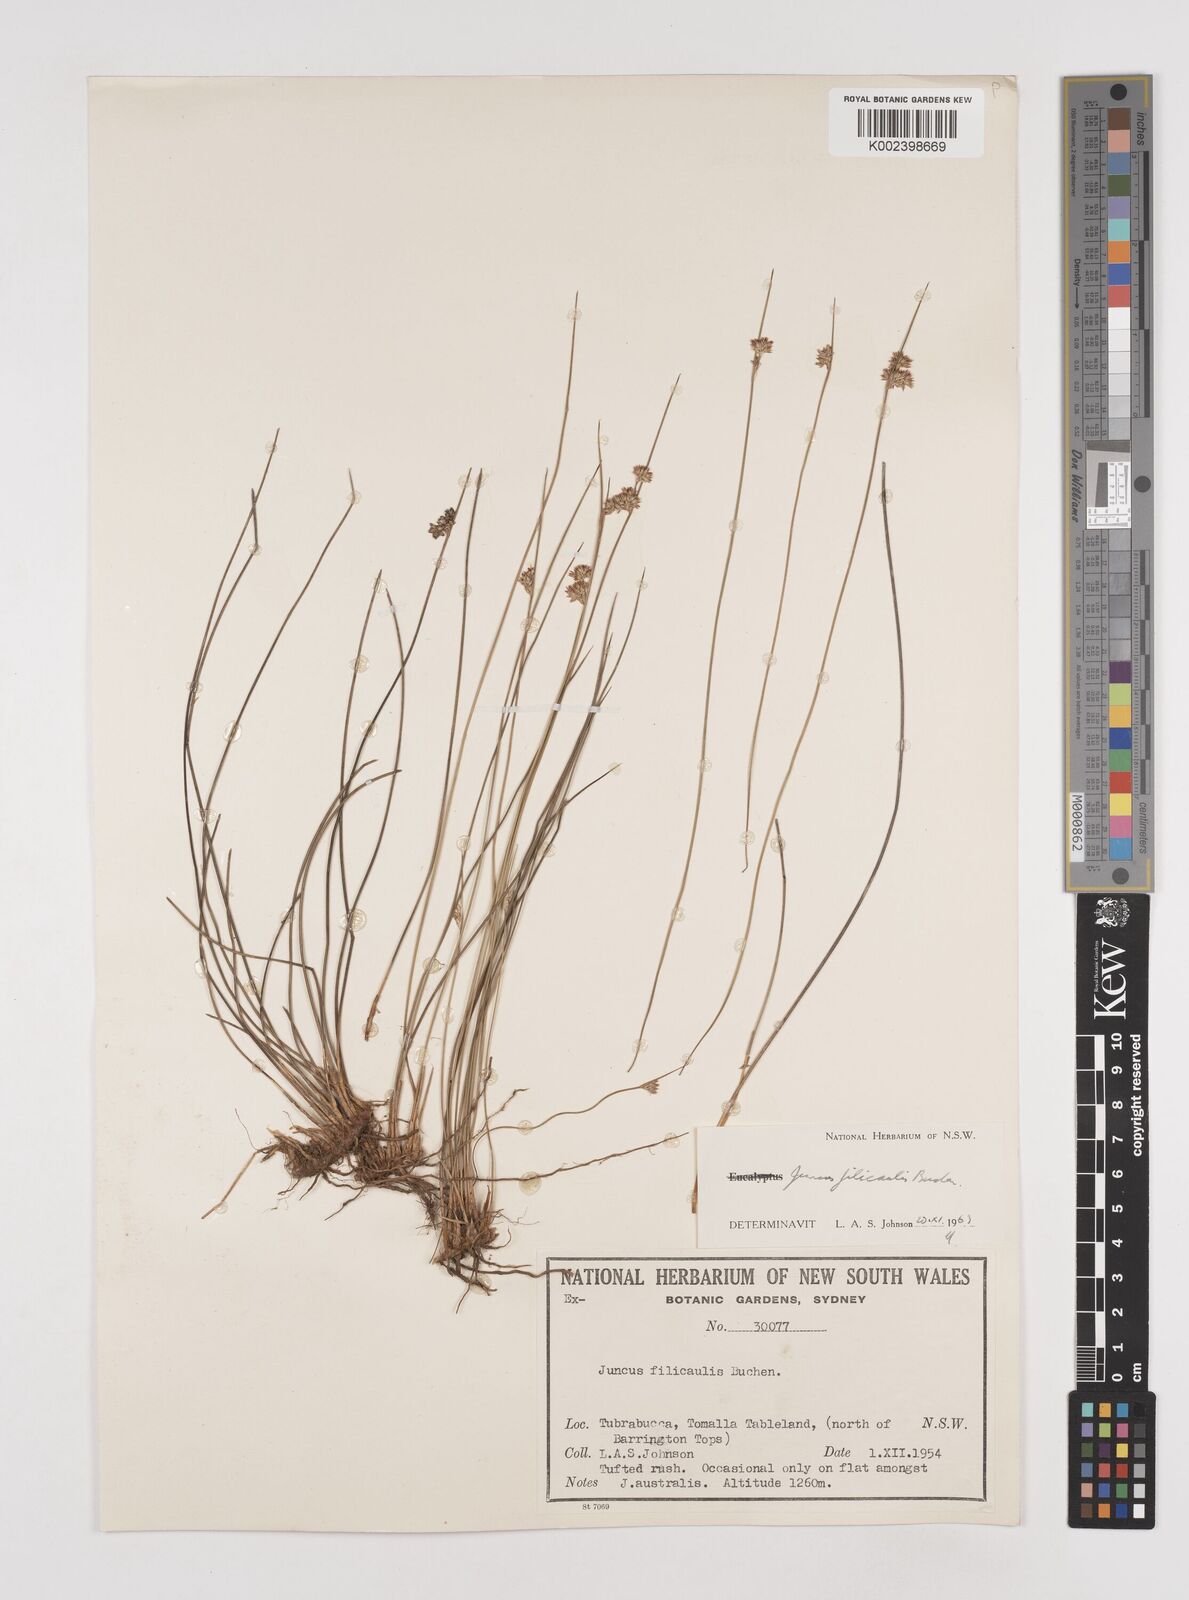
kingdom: Plantae
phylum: Tracheophyta
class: Liliopsida
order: Poales
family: Juncaceae
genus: Juncus
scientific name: Juncus filicaulis
